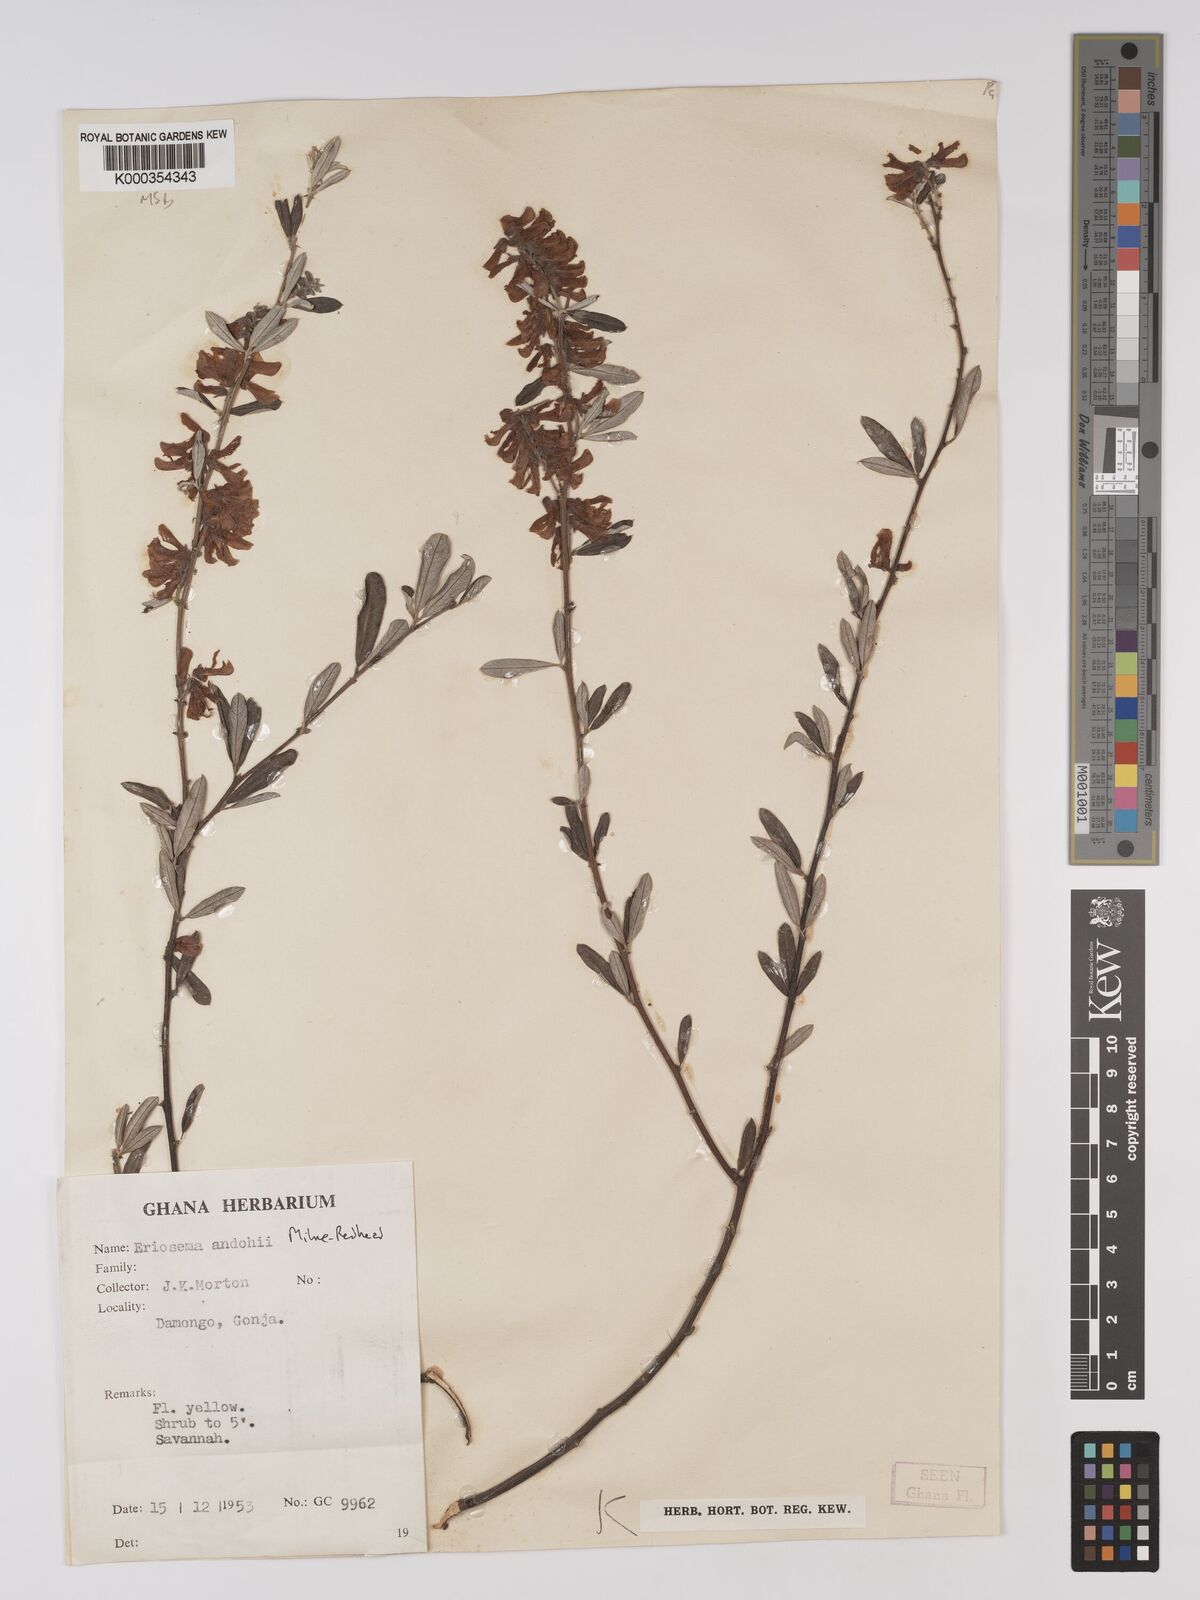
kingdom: Plantae
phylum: Tracheophyta
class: Magnoliopsida
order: Fabales
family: Fabaceae
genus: Eriosema
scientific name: Eriosema andohii
